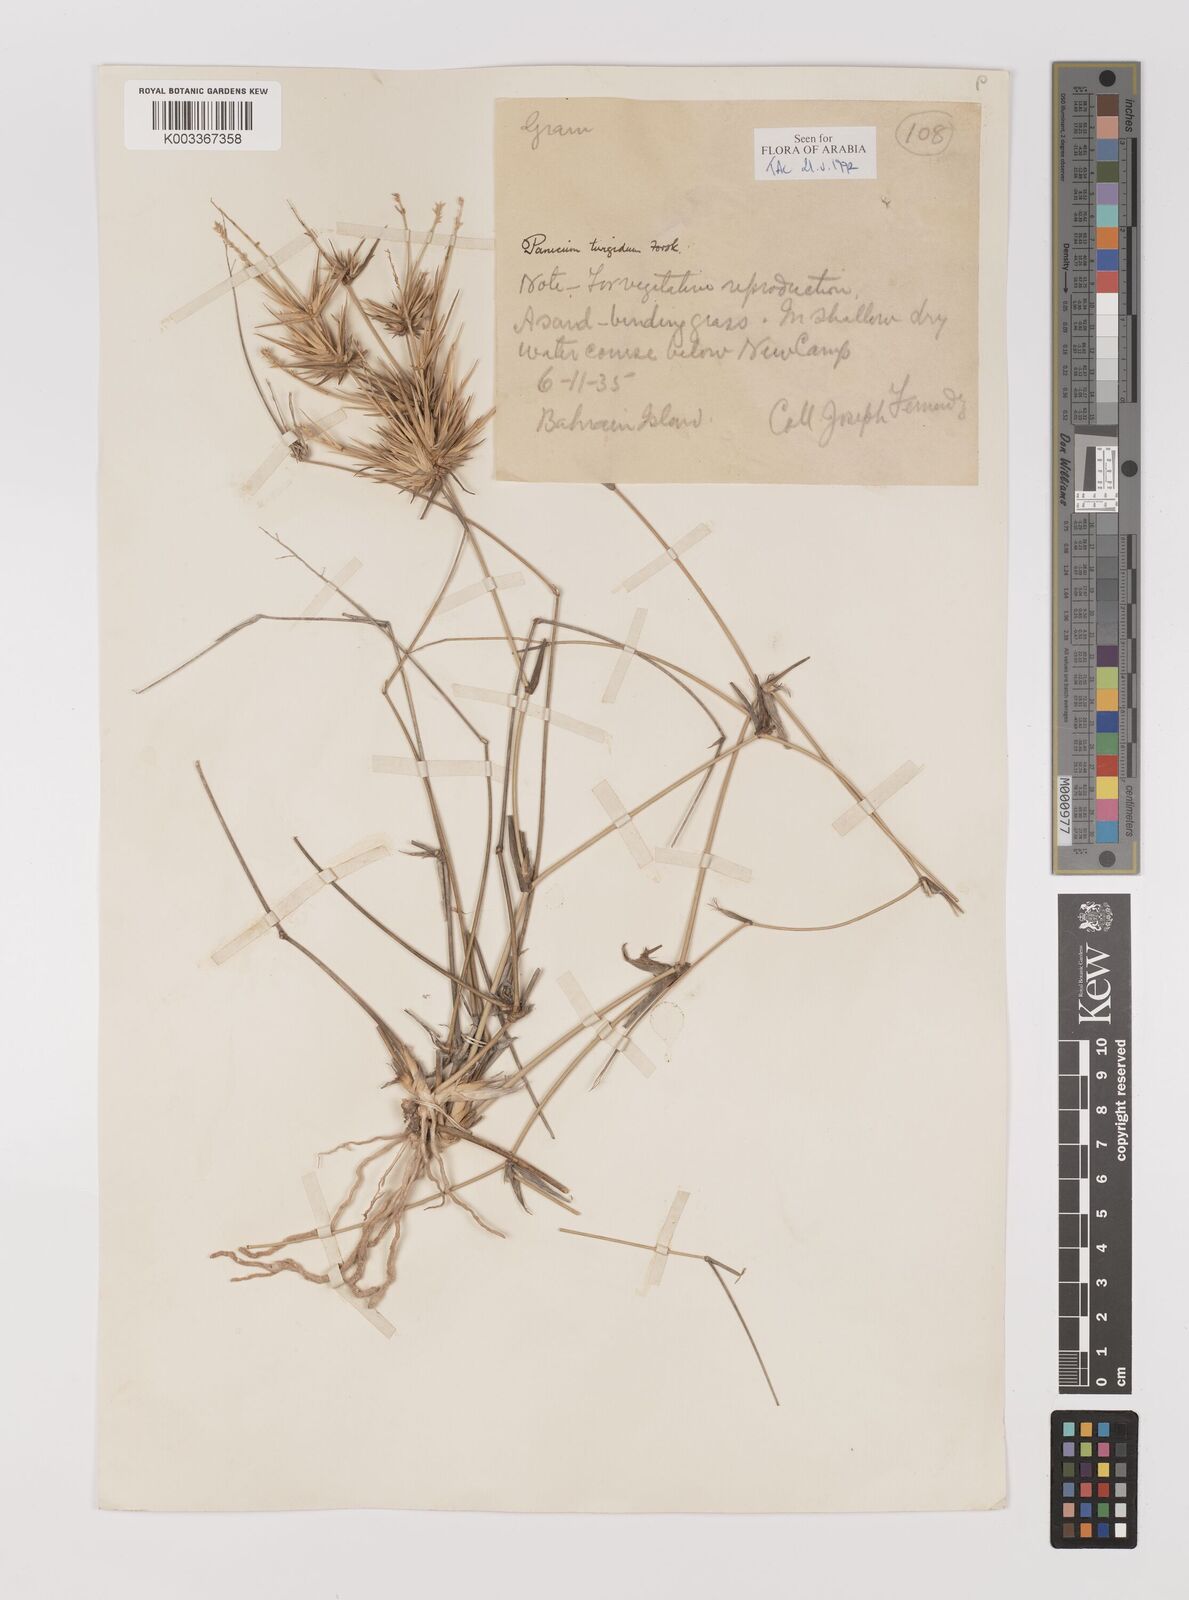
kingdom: Plantae
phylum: Tracheophyta
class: Liliopsida
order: Poales
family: Poaceae
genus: Panicum
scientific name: Panicum turgidum
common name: Desert grass
